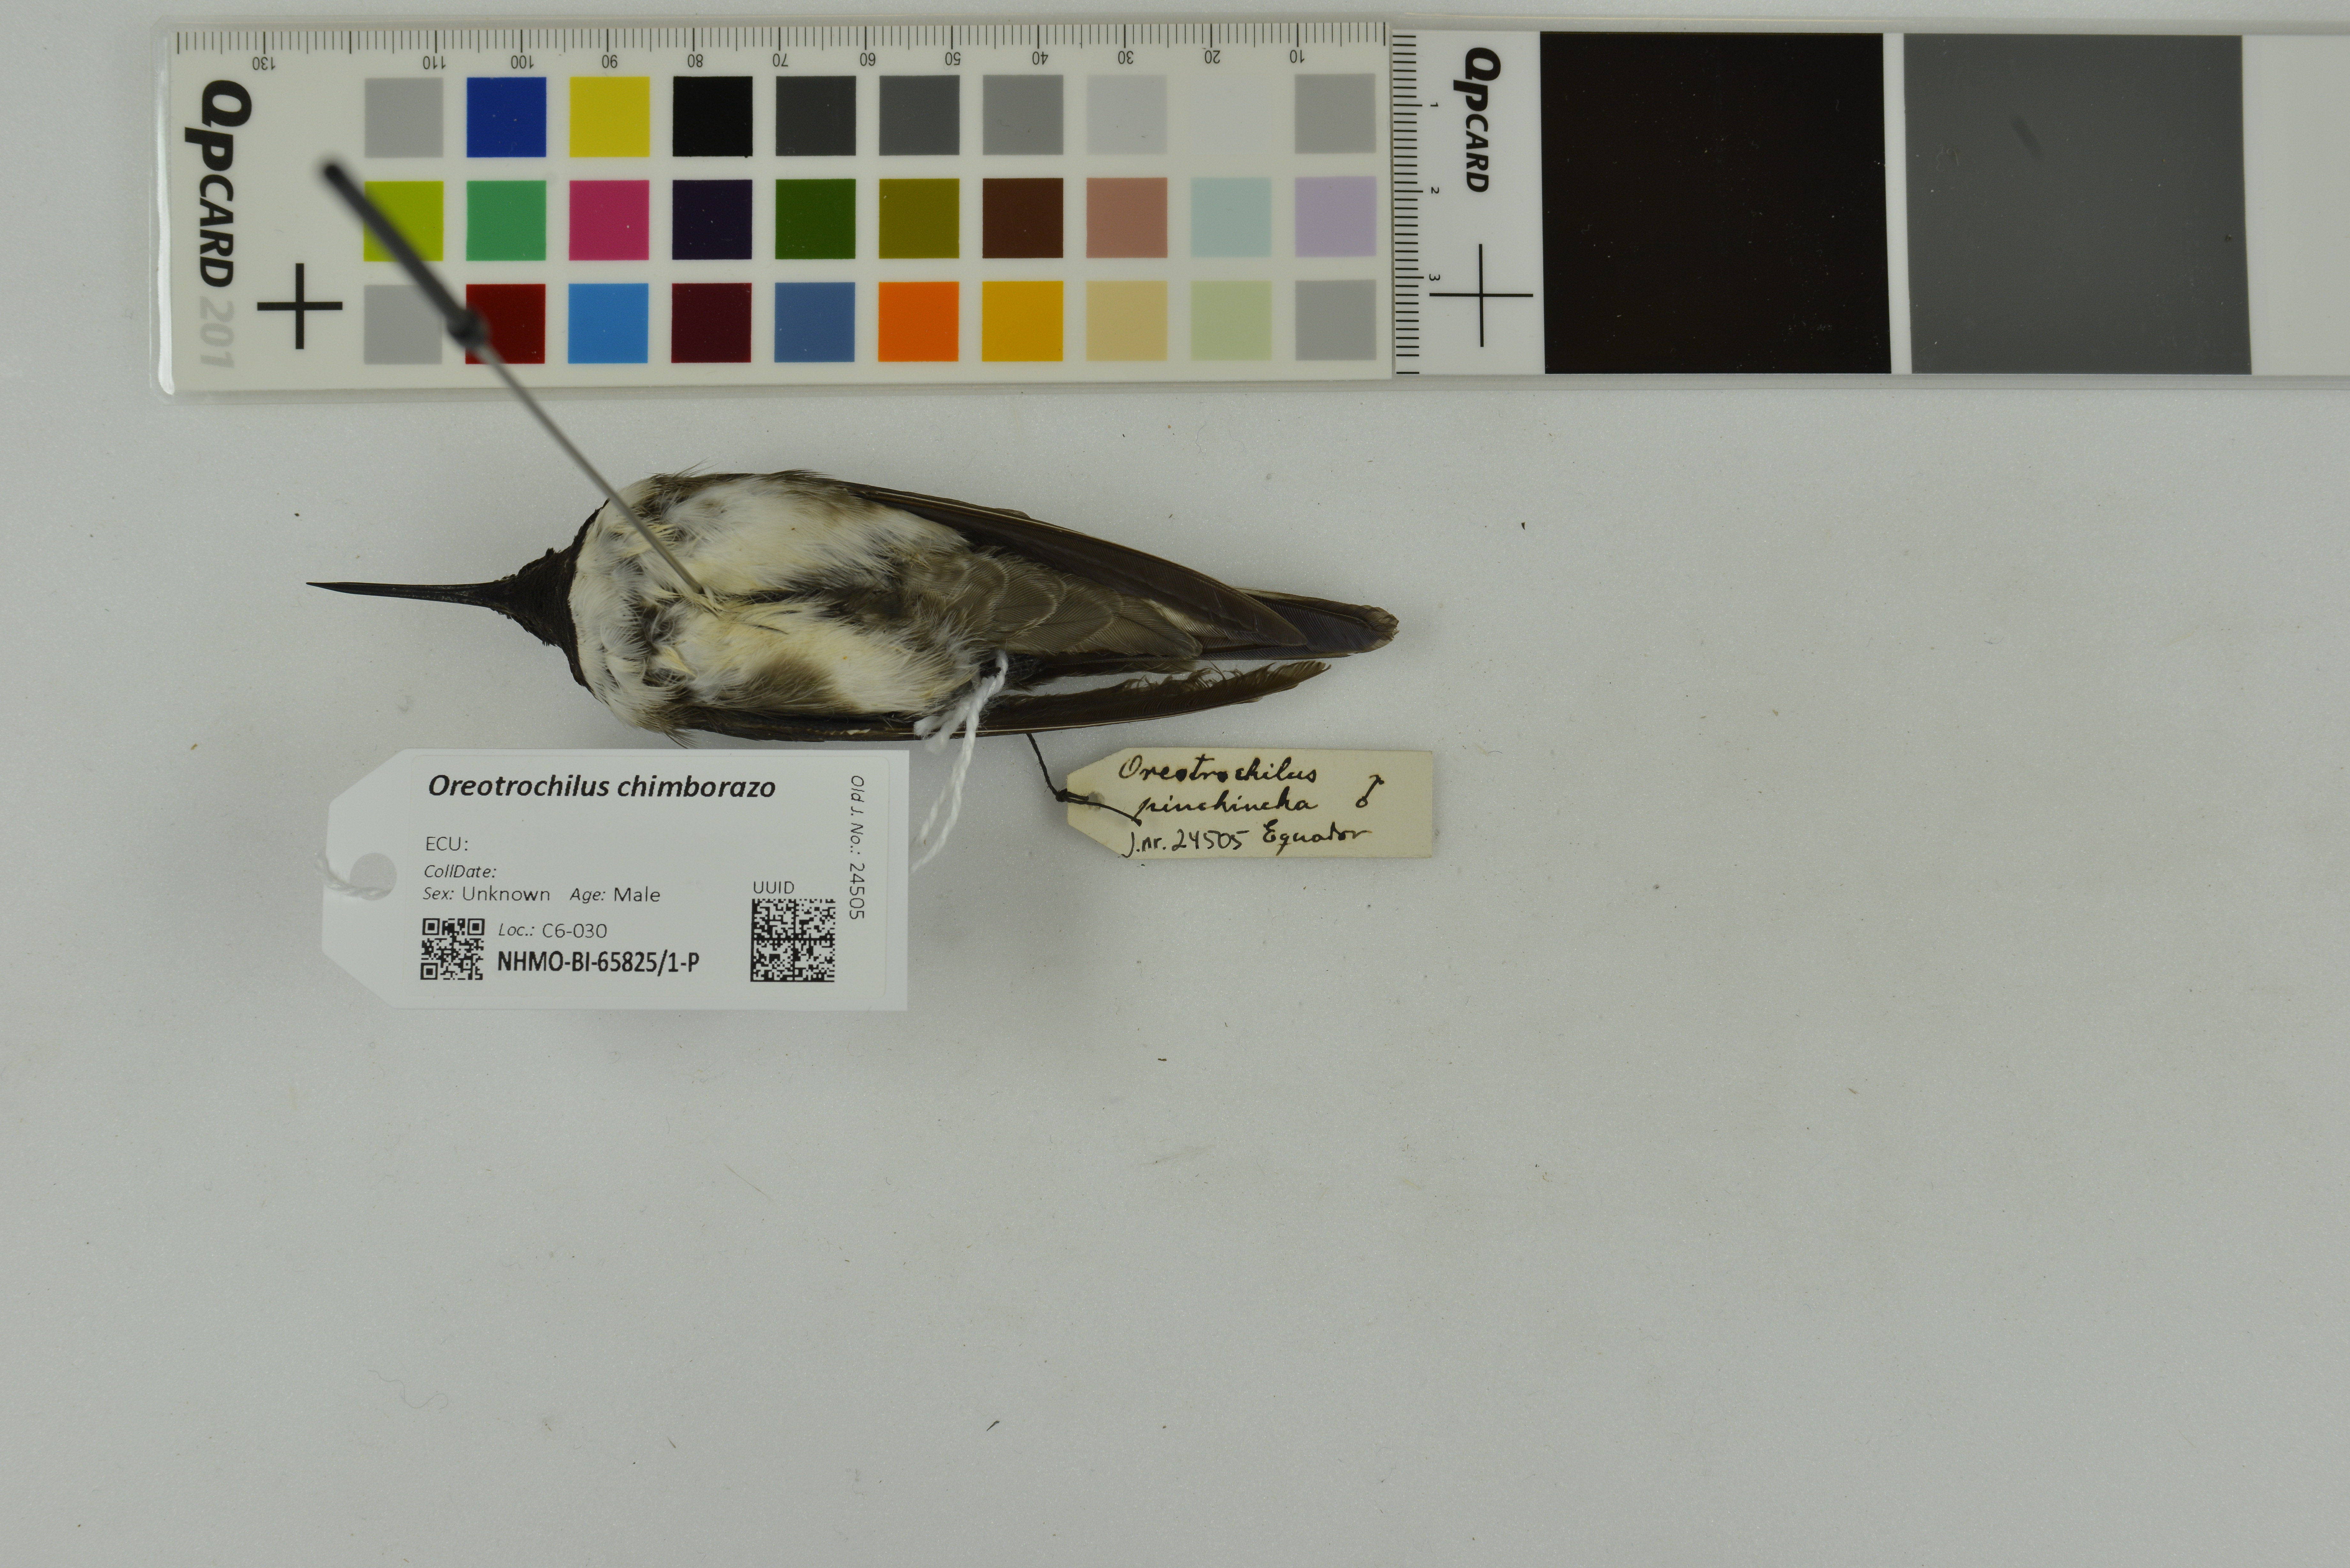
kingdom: Animalia
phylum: Chordata
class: Aves
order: Apodiformes
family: Trochilidae
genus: Oreotrochilus
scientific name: Oreotrochilus chimborazo
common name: Ecuadorian hillstar
